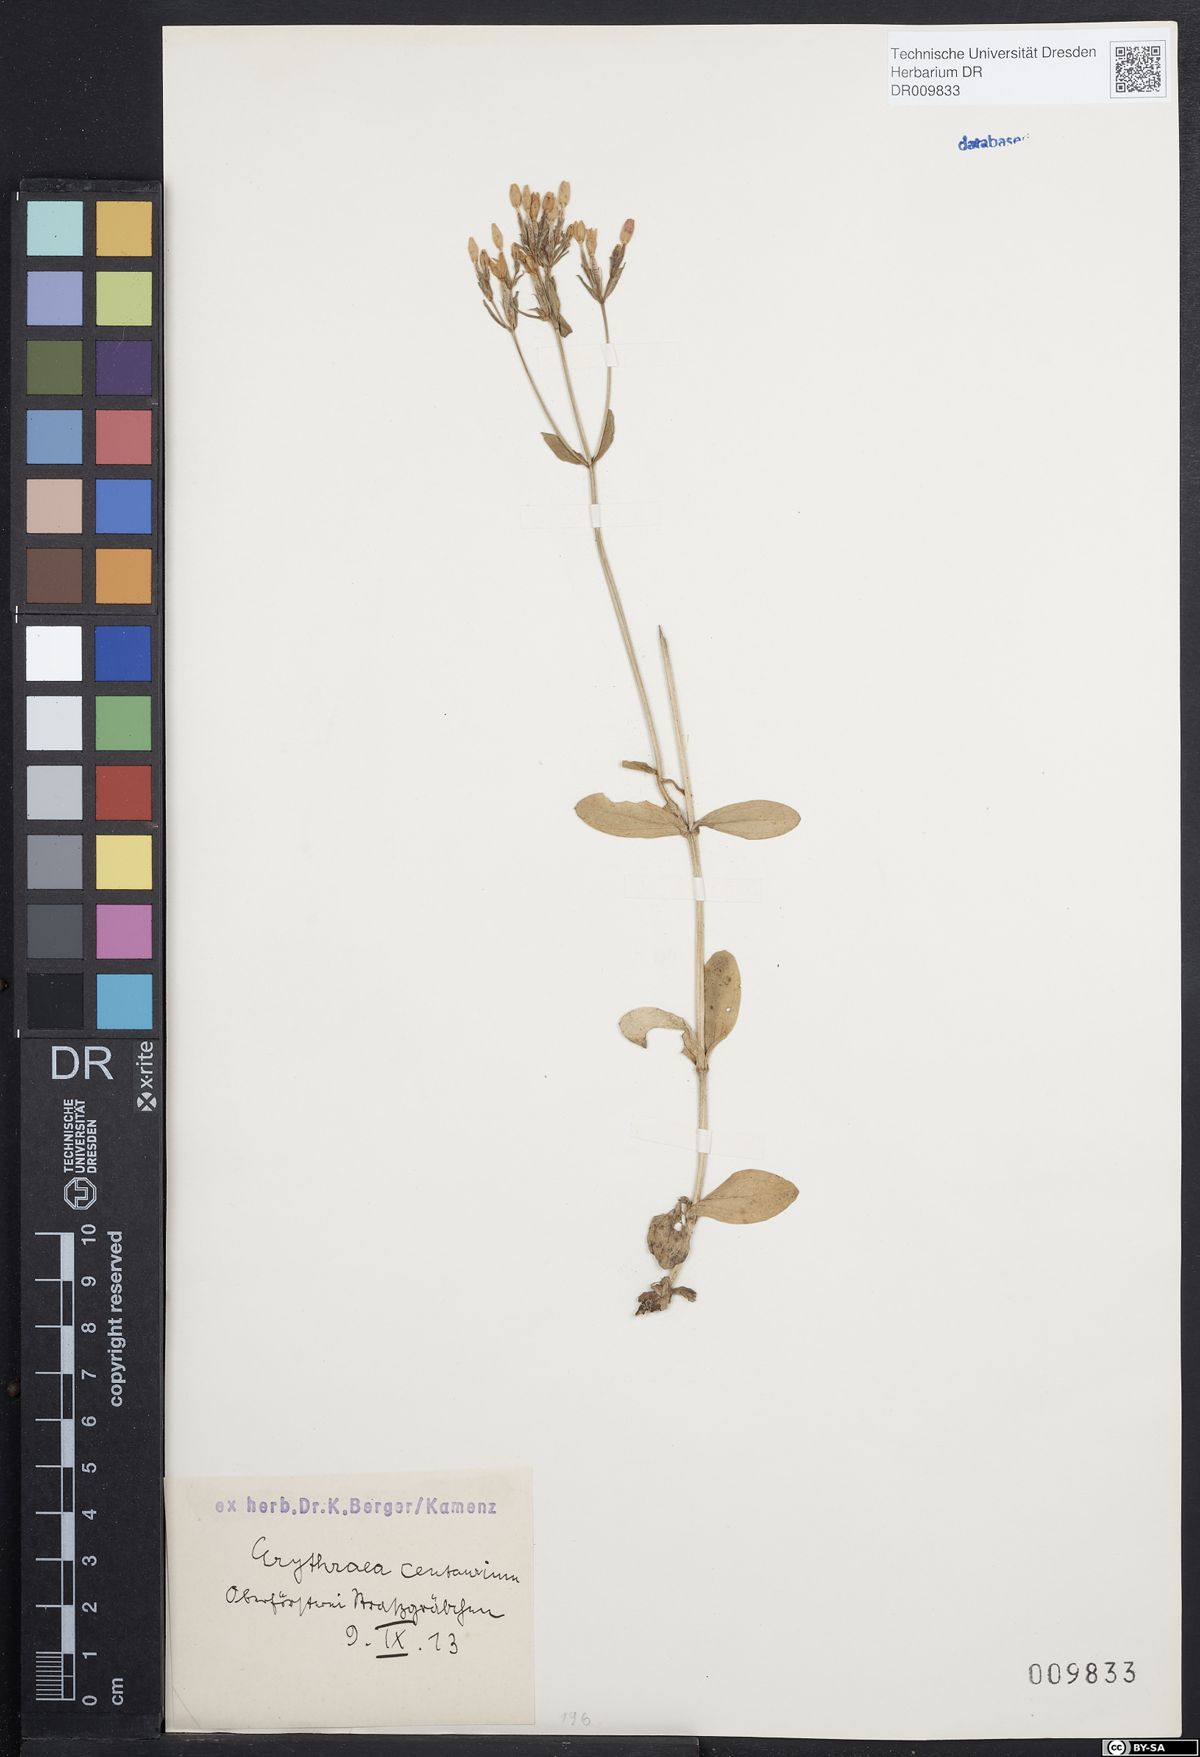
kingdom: Plantae
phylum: Tracheophyta
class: Magnoliopsida
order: Gentianales
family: Gentianaceae
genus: Centaurium
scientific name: Centaurium erythraea
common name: Common centaury
